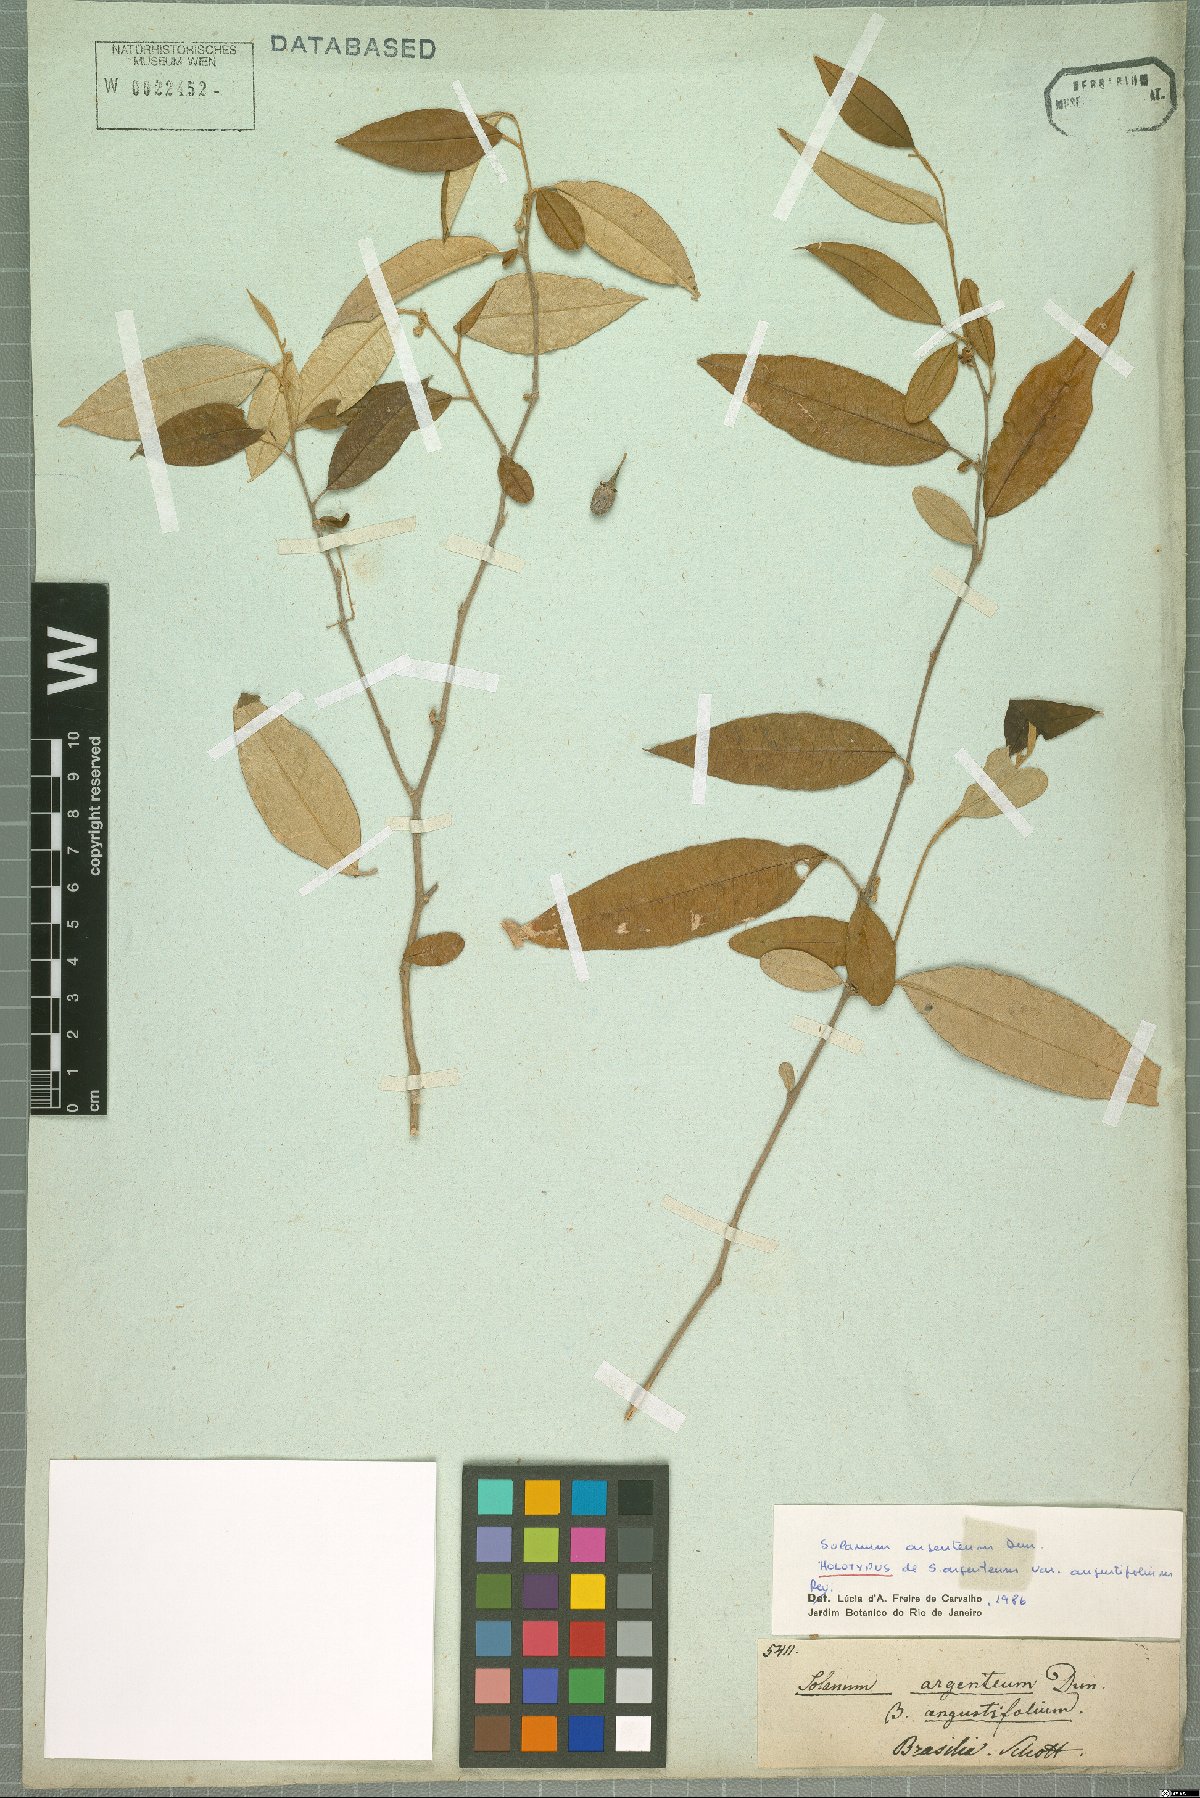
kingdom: Plantae
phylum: Tracheophyta
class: Magnoliopsida
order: Solanales
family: Solanaceae
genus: Solanum
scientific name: Solanum swartzianum
